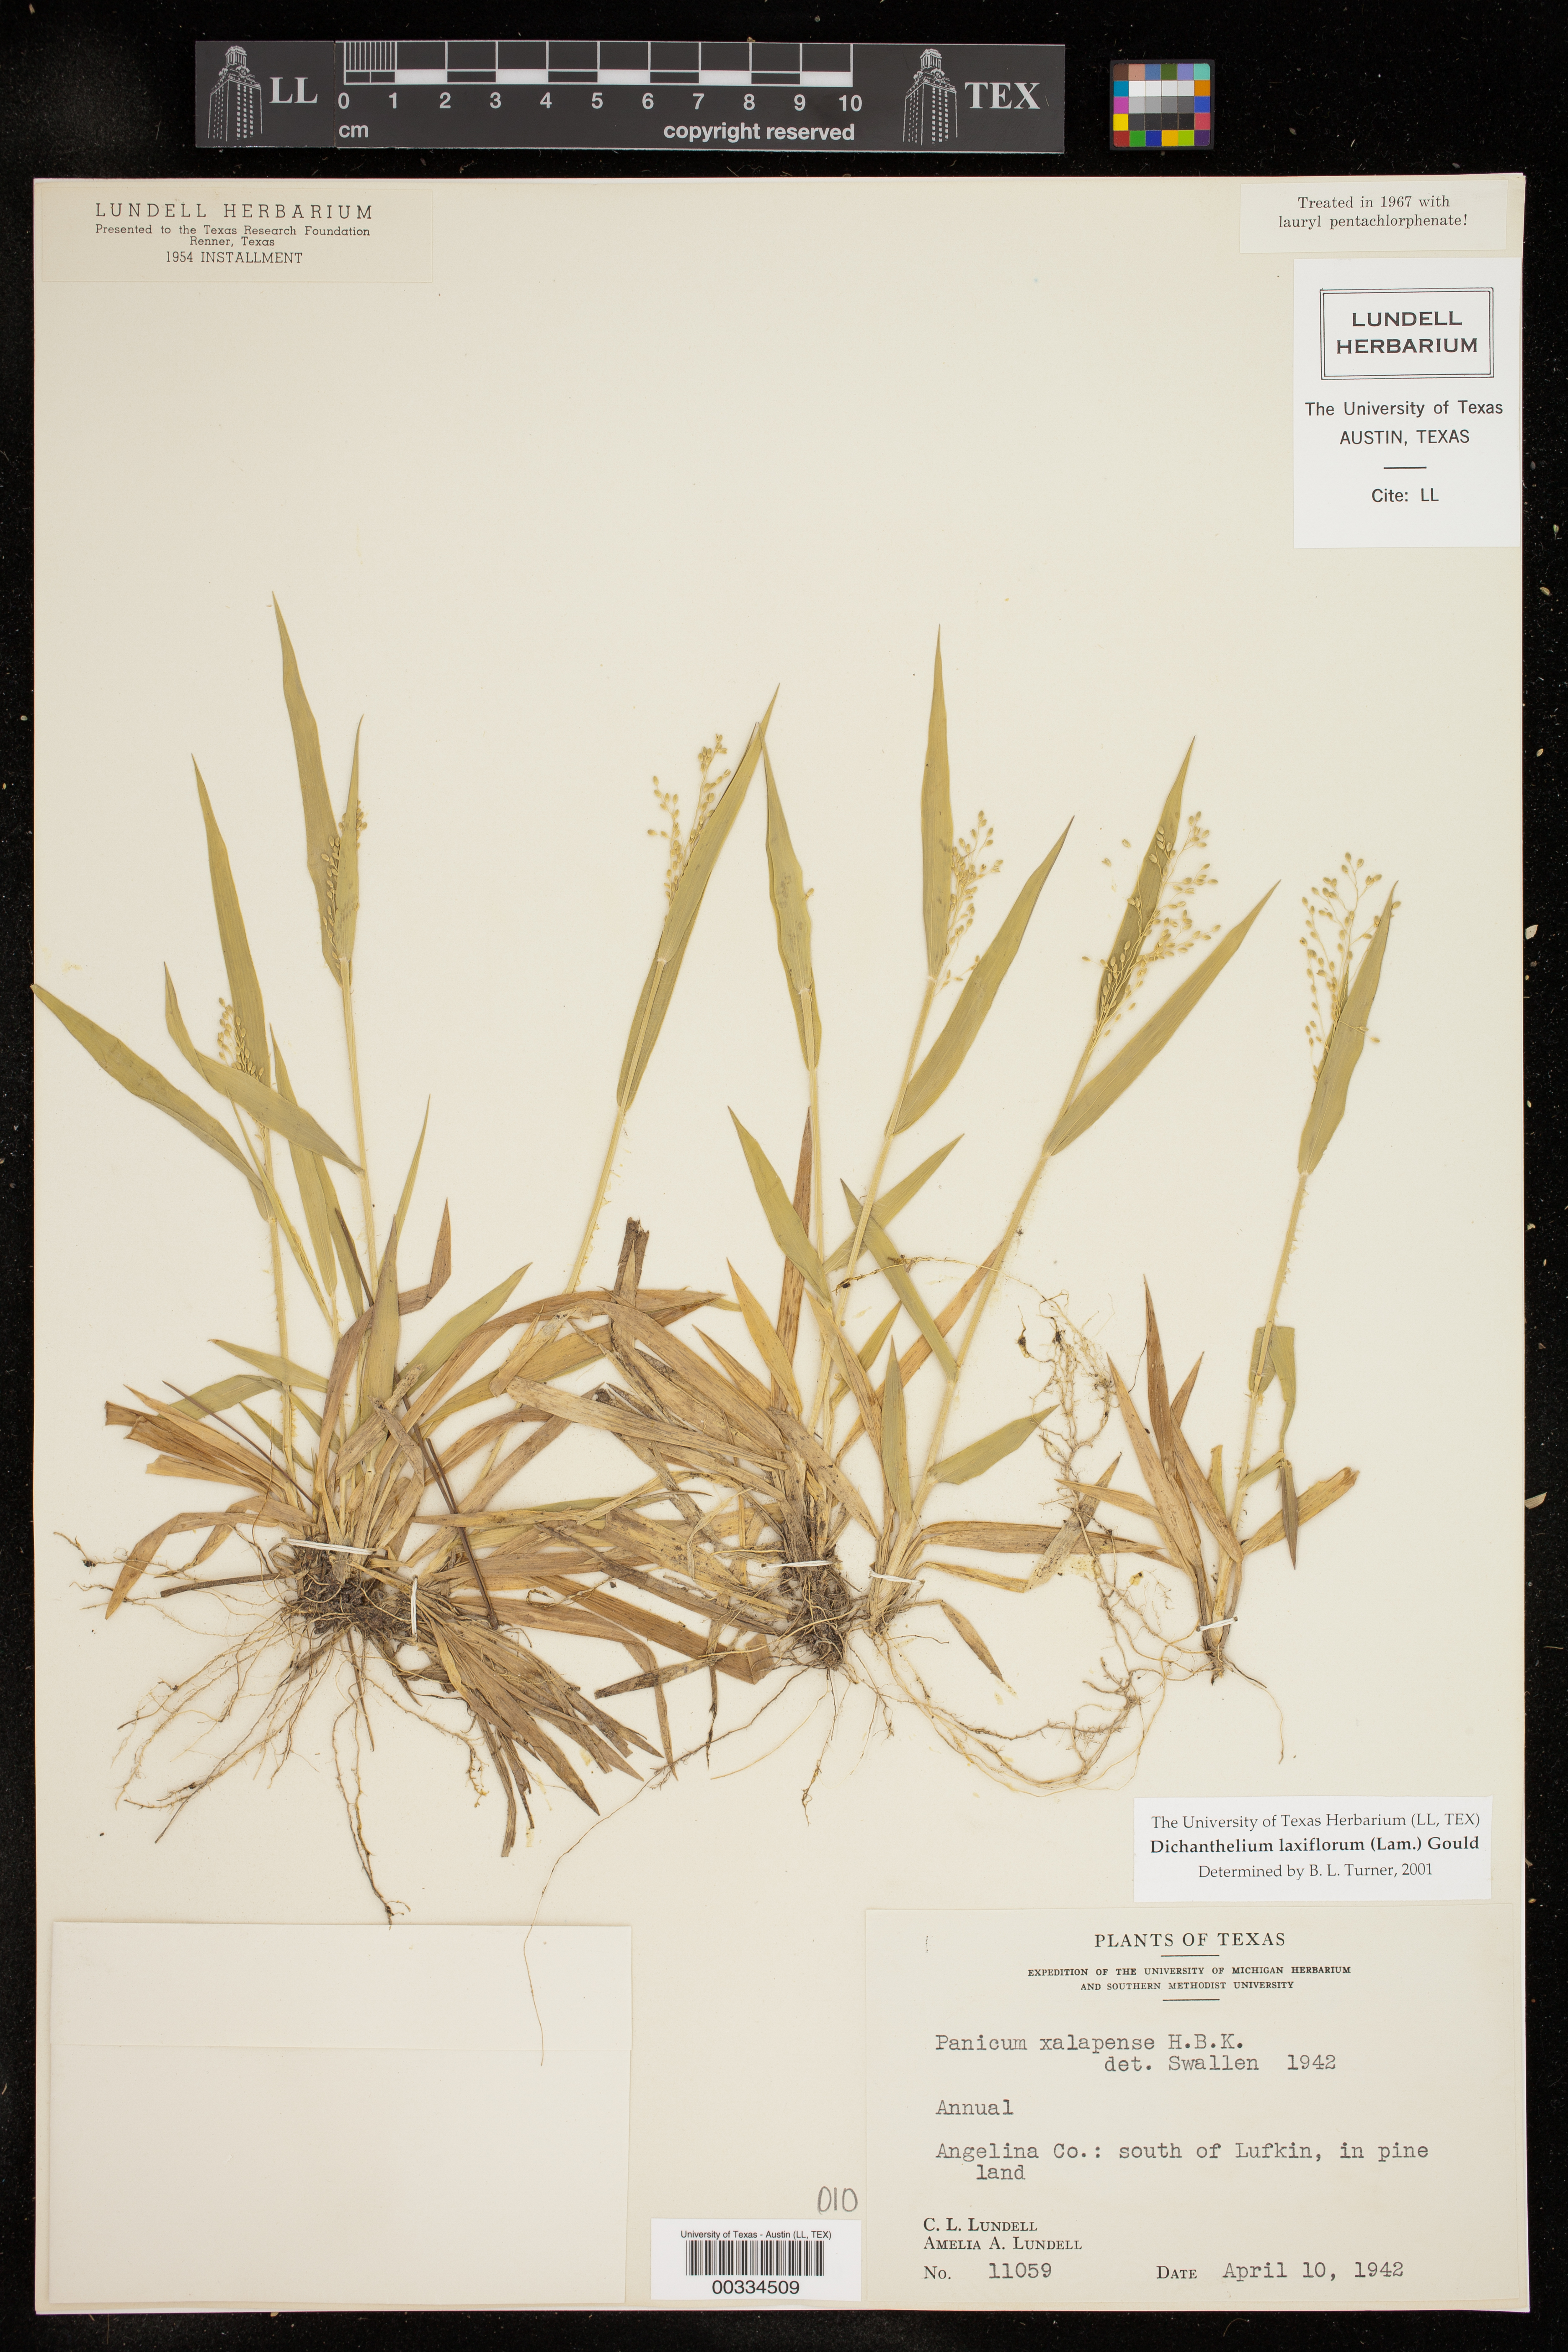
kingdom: Plantae
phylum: Tracheophyta
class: Liliopsida
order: Poales
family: Poaceae
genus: Dichanthelium
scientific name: Dichanthelium laxiflorum
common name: Soft-tuft panic grass
